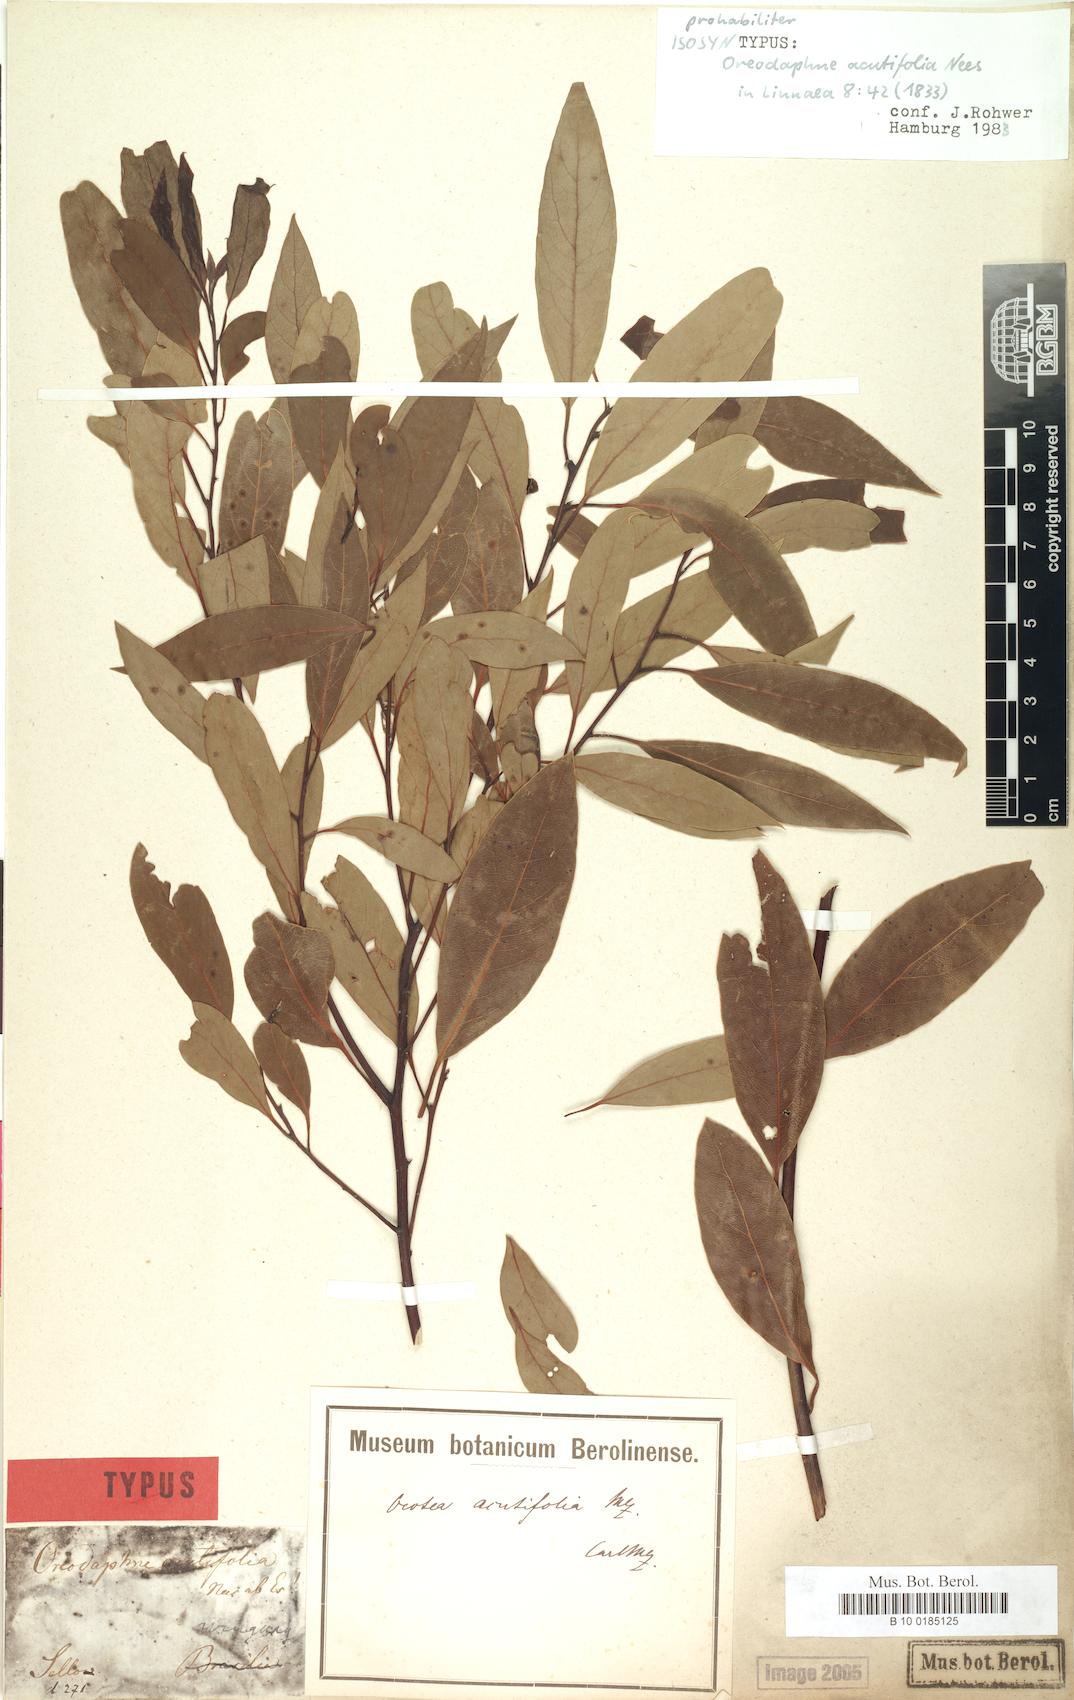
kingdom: Plantae
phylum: Tracheophyta
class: Magnoliopsida
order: Laurales
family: Lauraceae
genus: Ocotea
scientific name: Ocotea acutifolia
